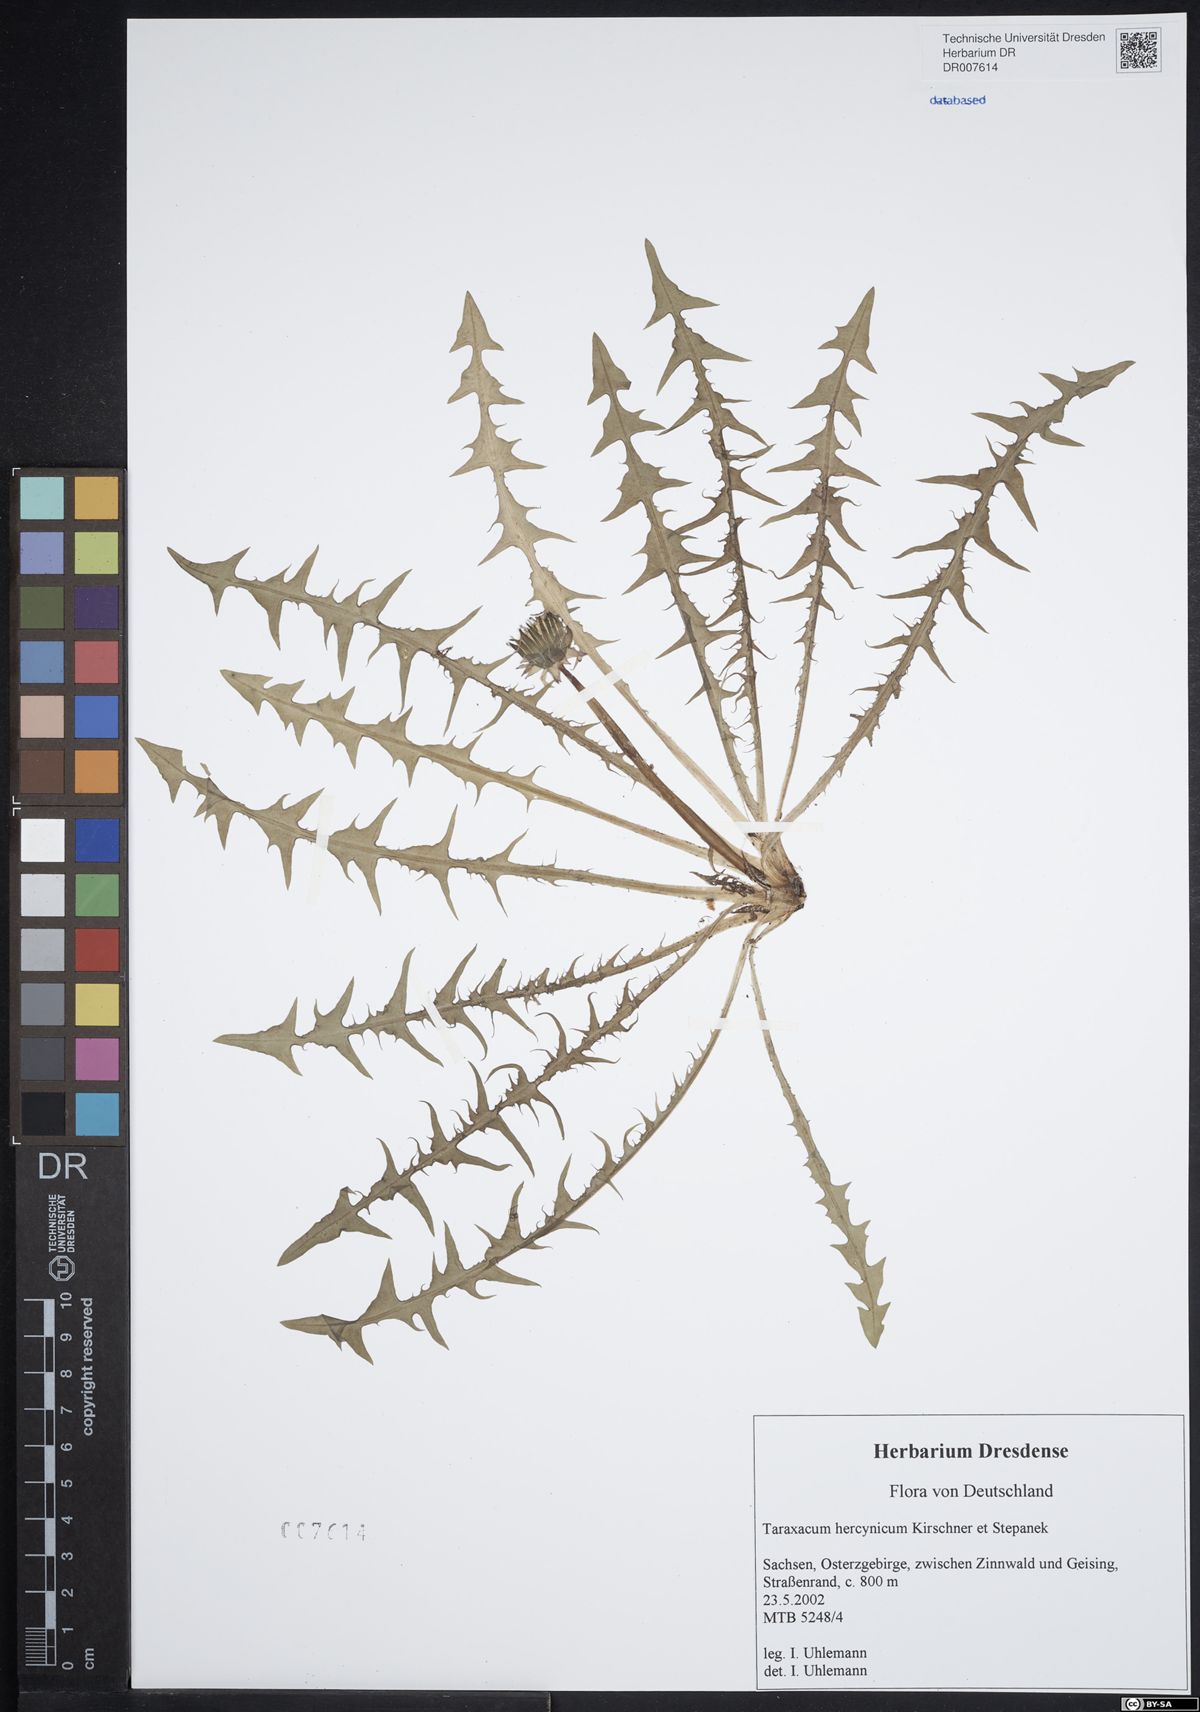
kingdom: Plantae
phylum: Tracheophyta
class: Magnoliopsida
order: Asterales
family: Asteraceae
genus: Taraxacum
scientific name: Taraxacum hercynicum
